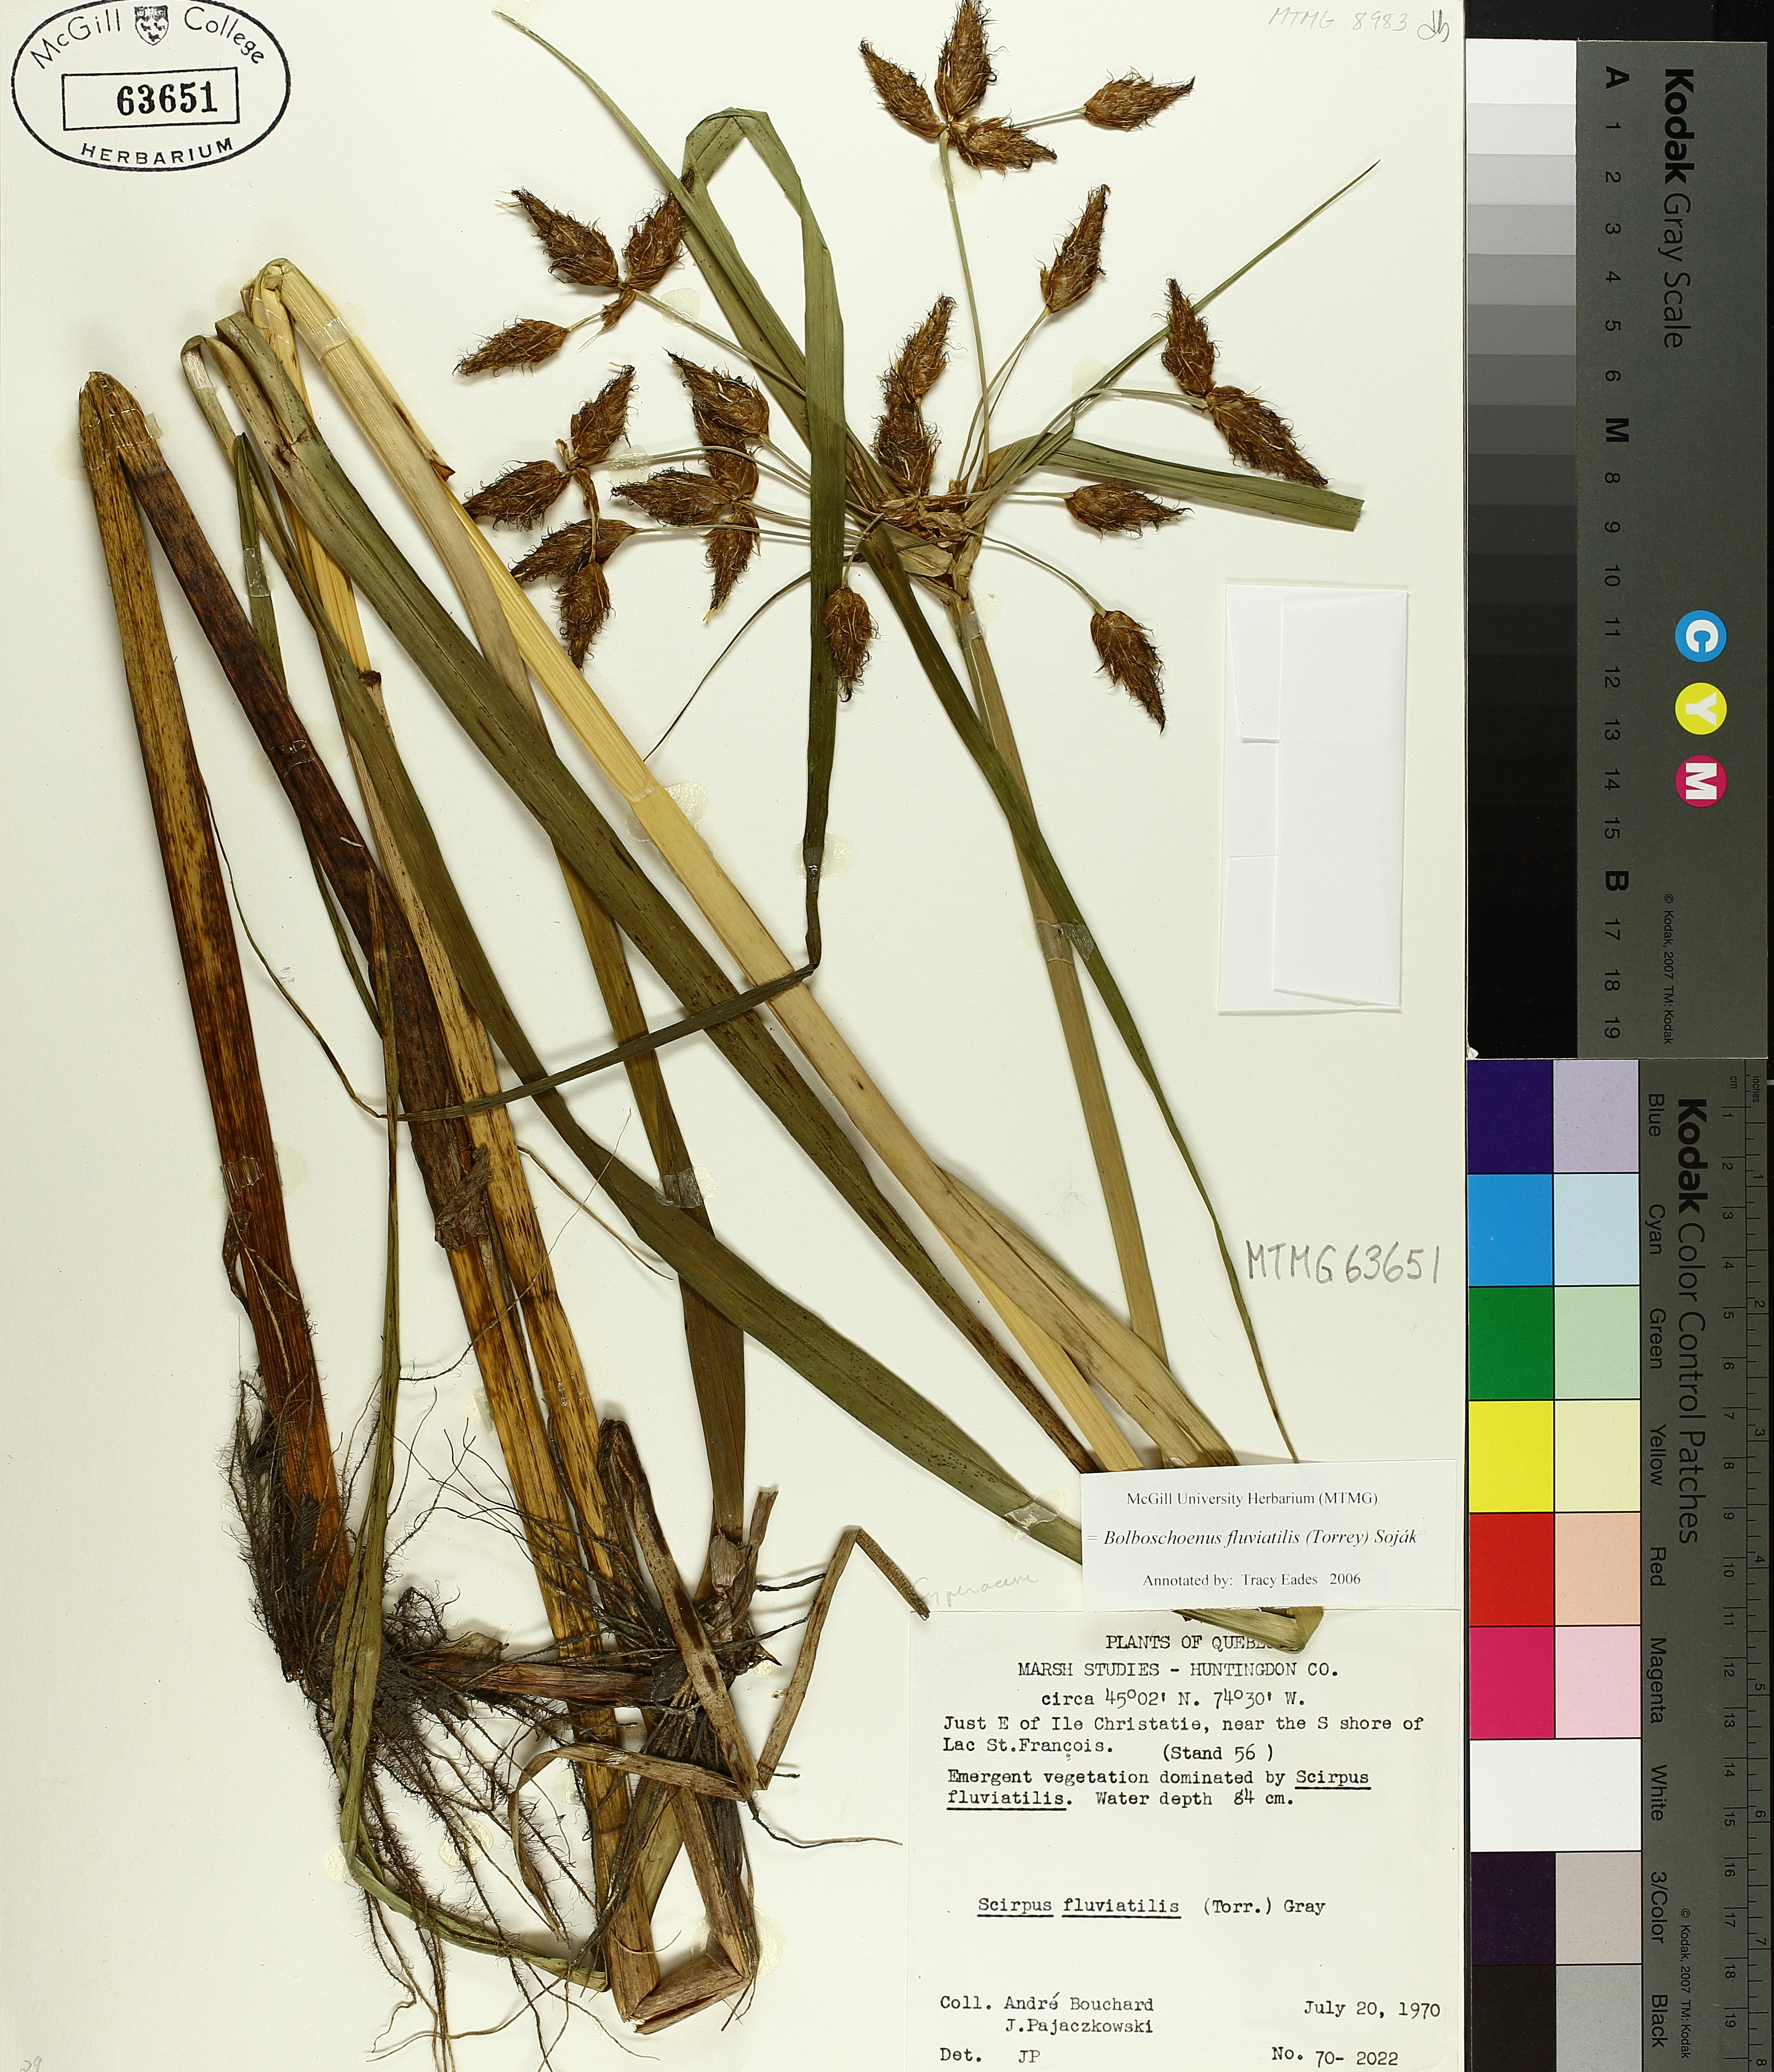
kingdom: Plantae
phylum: Tracheophyta
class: Liliopsida
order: Poales
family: Cyperaceae
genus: Bolboschoenus
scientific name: Bolboschoenus fluviatilis
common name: River bulrush
